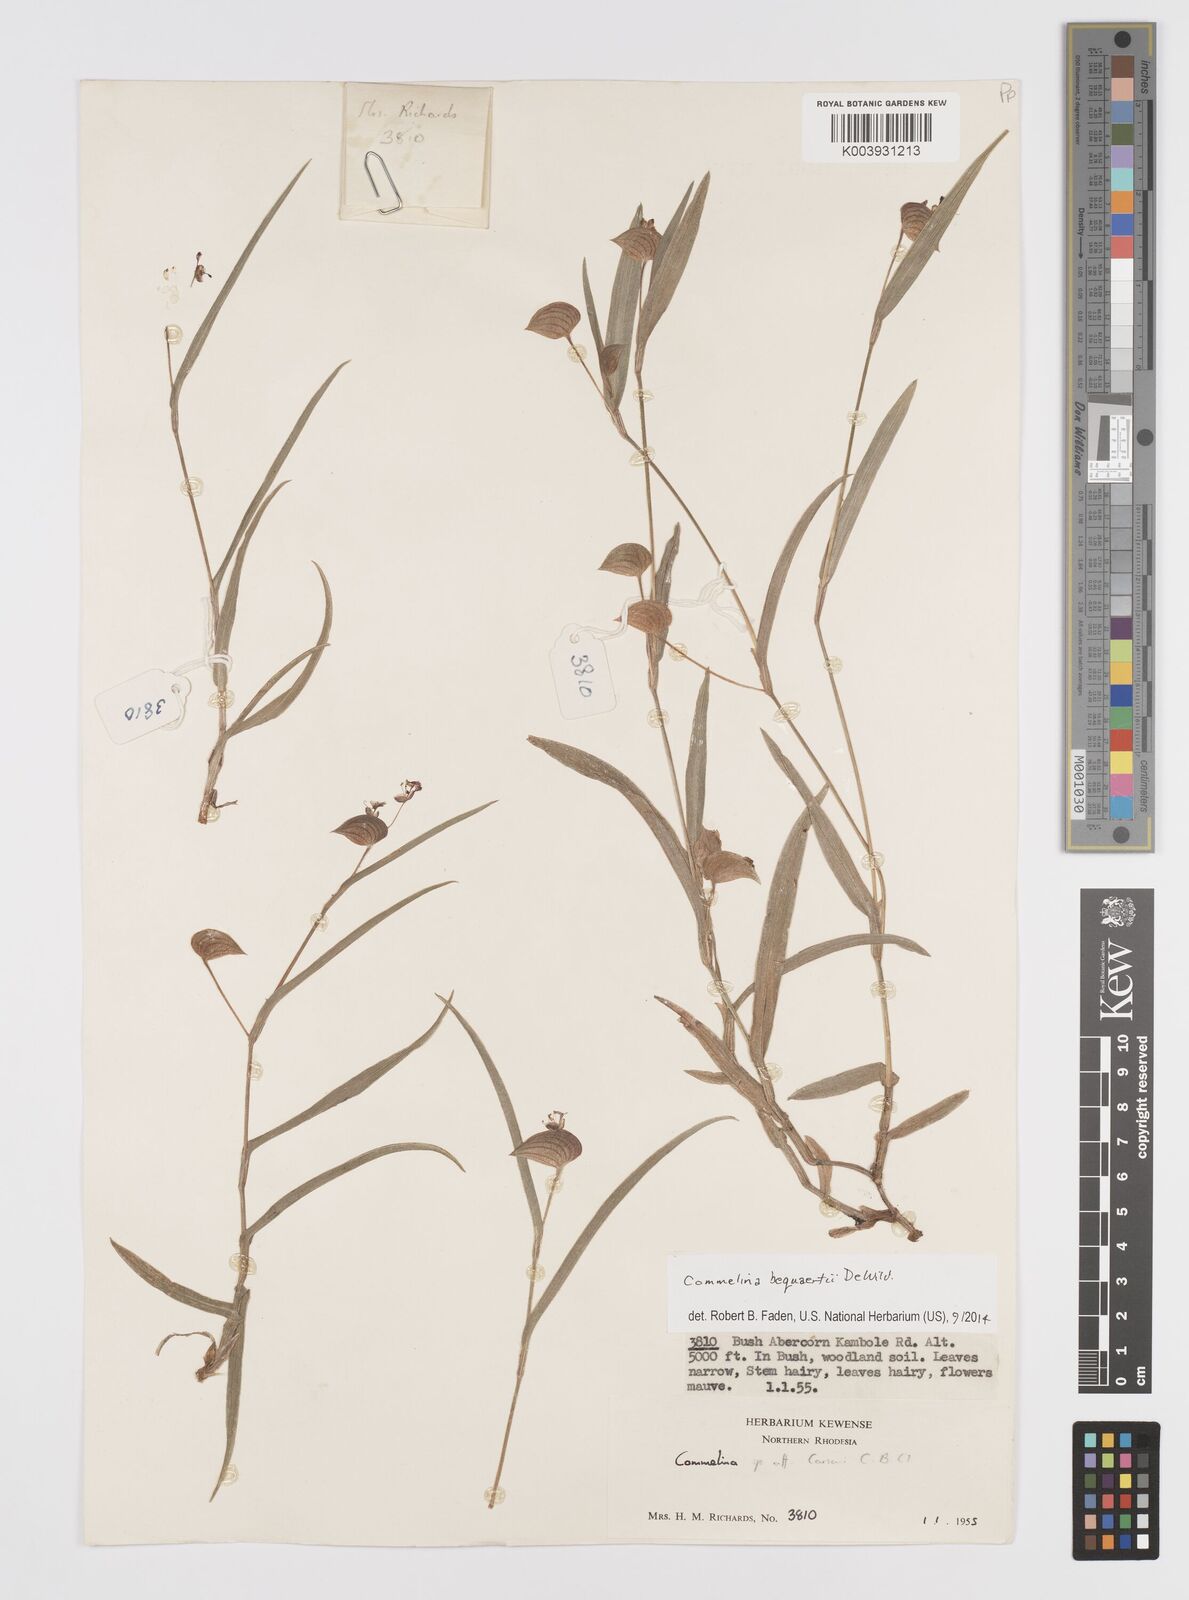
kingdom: Plantae
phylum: Tracheophyta
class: Liliopsida
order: Commelinales
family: Commelinaceae
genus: Commelina
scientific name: Commelina bequaertii
